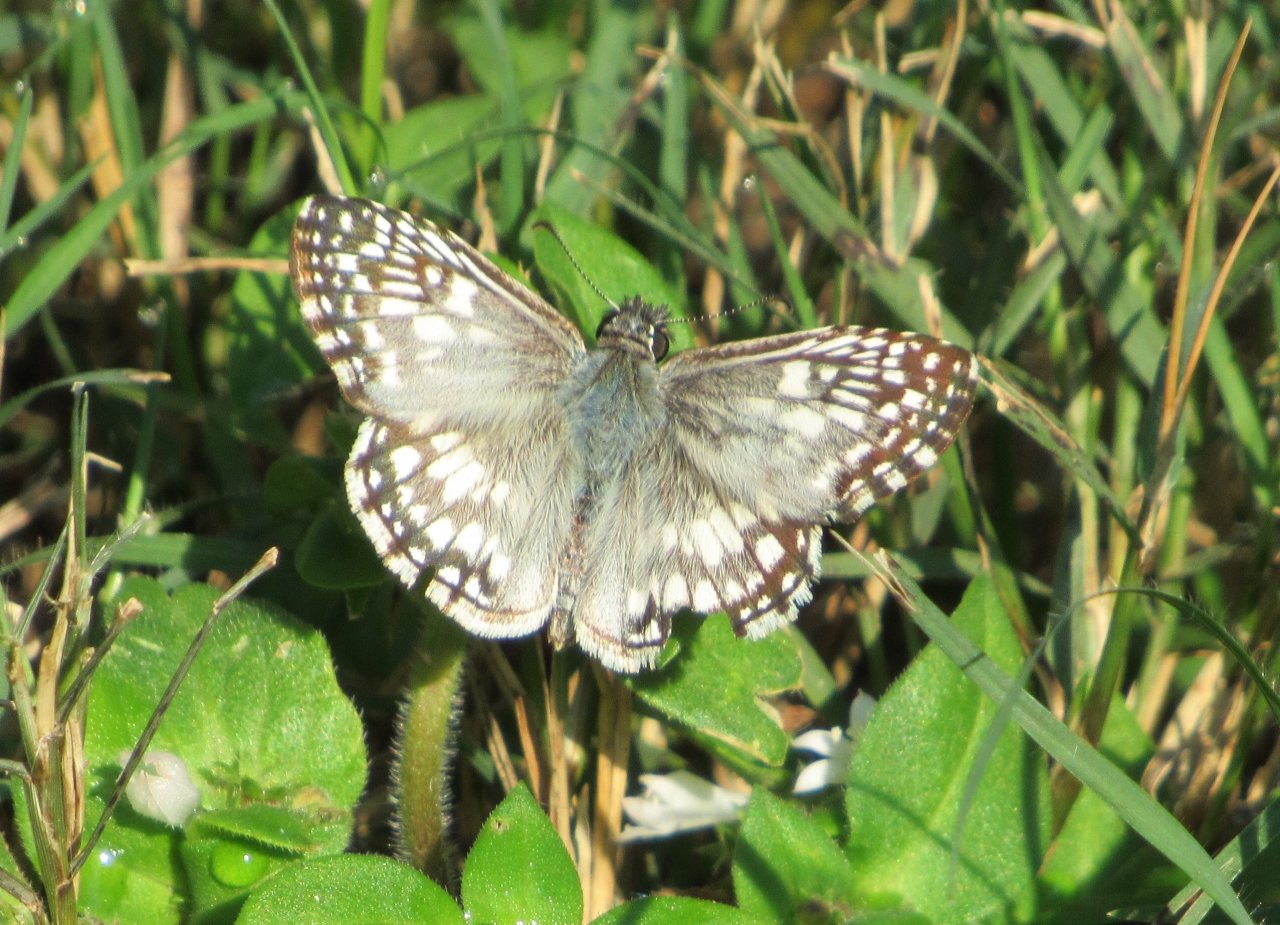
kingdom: Animalia
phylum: Arthropoda
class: Insecta
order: Lepidoptera
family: Hesperiidae
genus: Pyrgus
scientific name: Pyrgus oileus
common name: Tropical Checkered-Skipper
